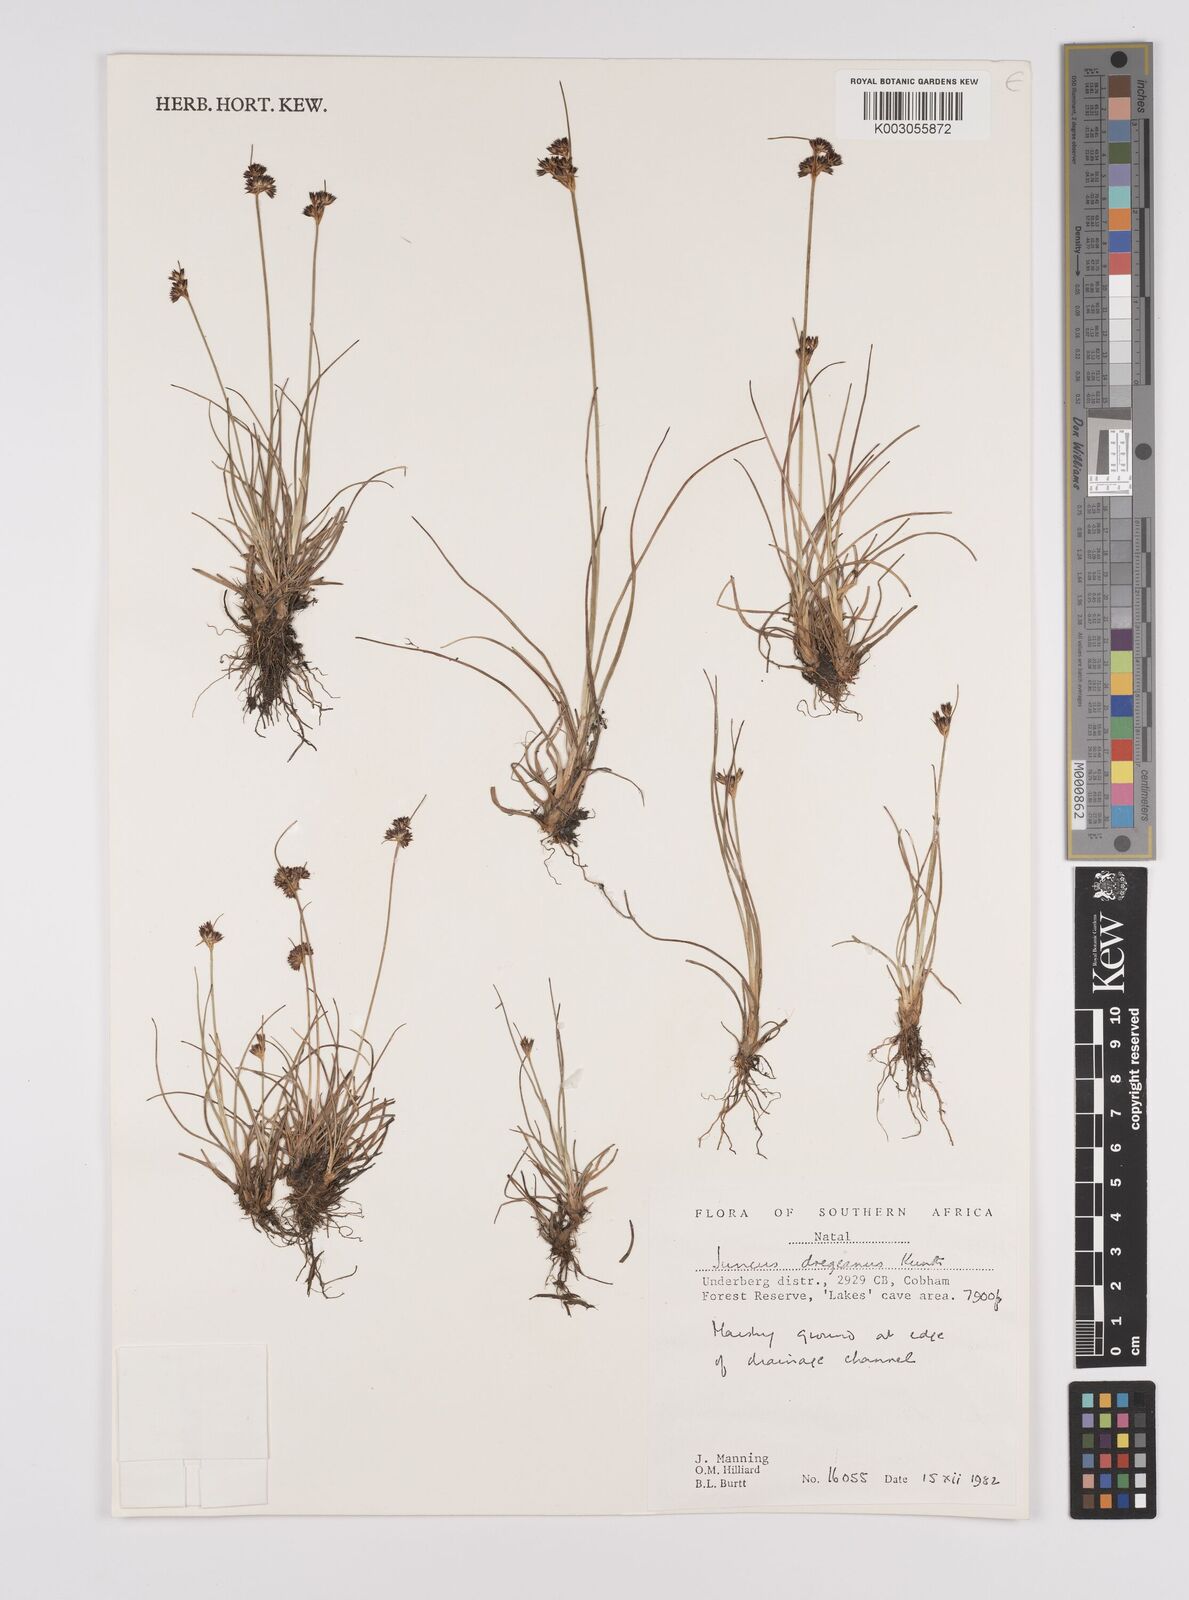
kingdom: Plantae
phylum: Tracheophyta
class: Liliopsida
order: Poales
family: Juncaceae
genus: Juncus
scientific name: Juncus dregeanus
